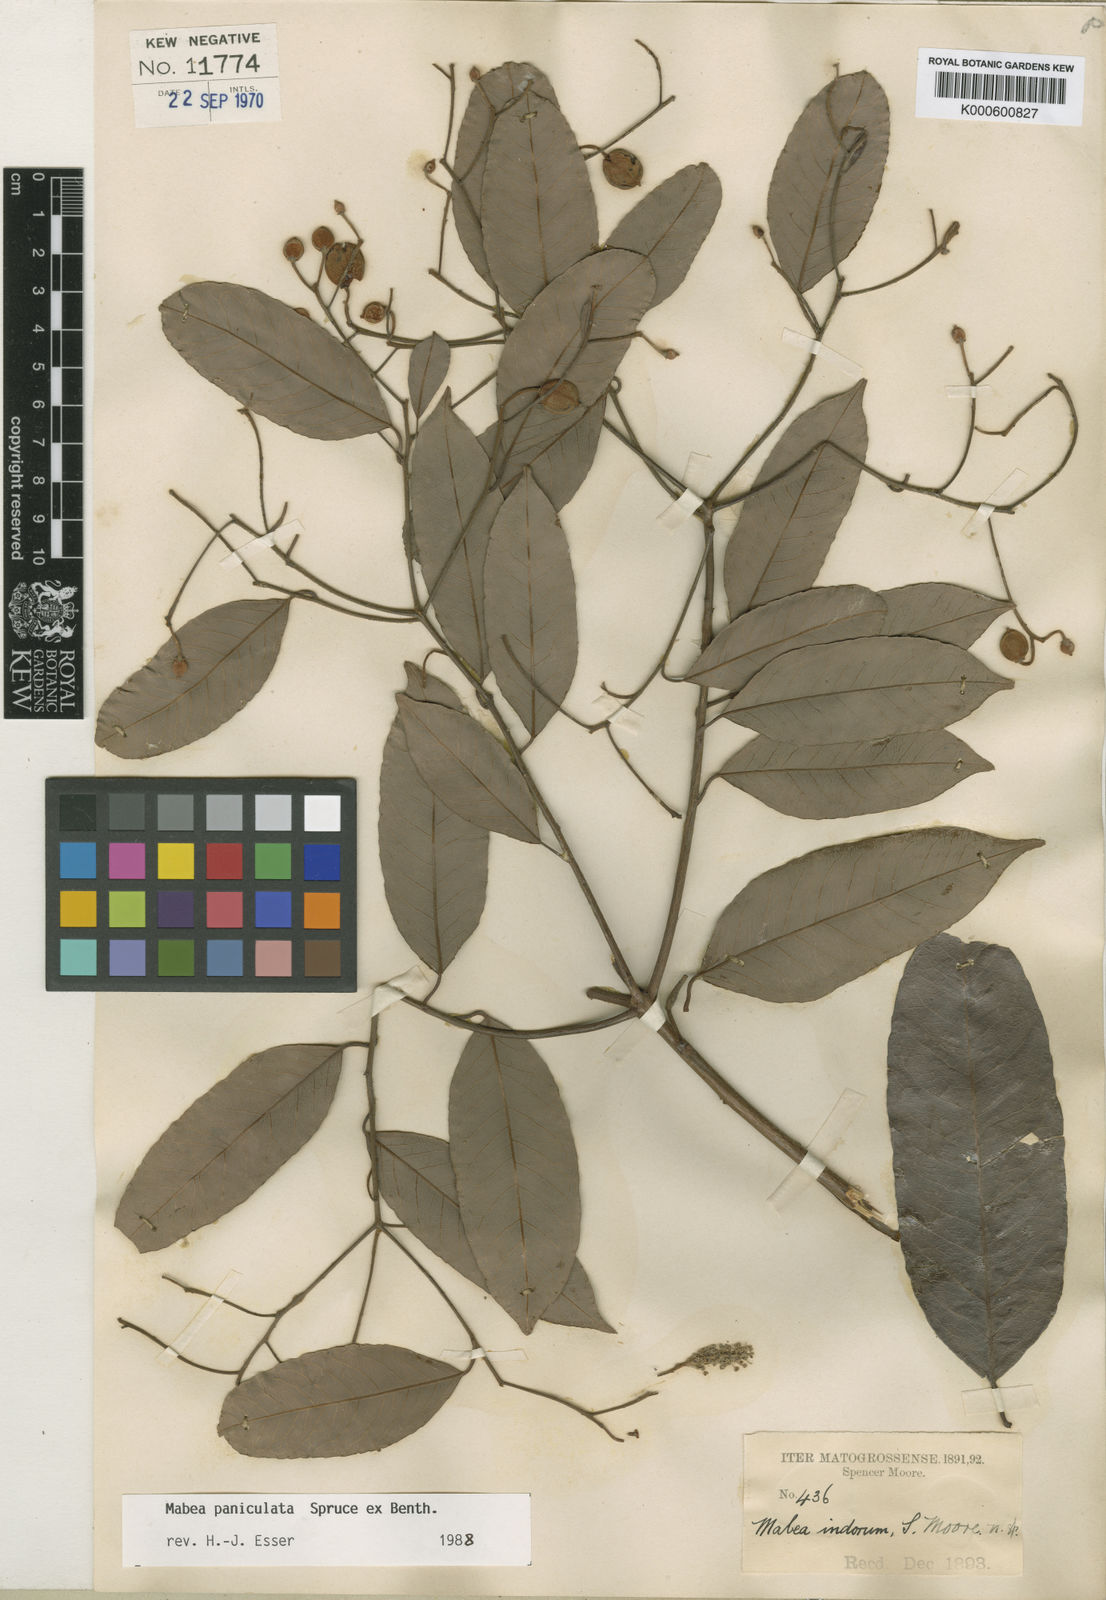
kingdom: Plantae
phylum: Tracheophyta
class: Magnoliopsida
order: Malpighiales
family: Euphorbiaceae
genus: Mabea
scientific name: Mabea paniculata
